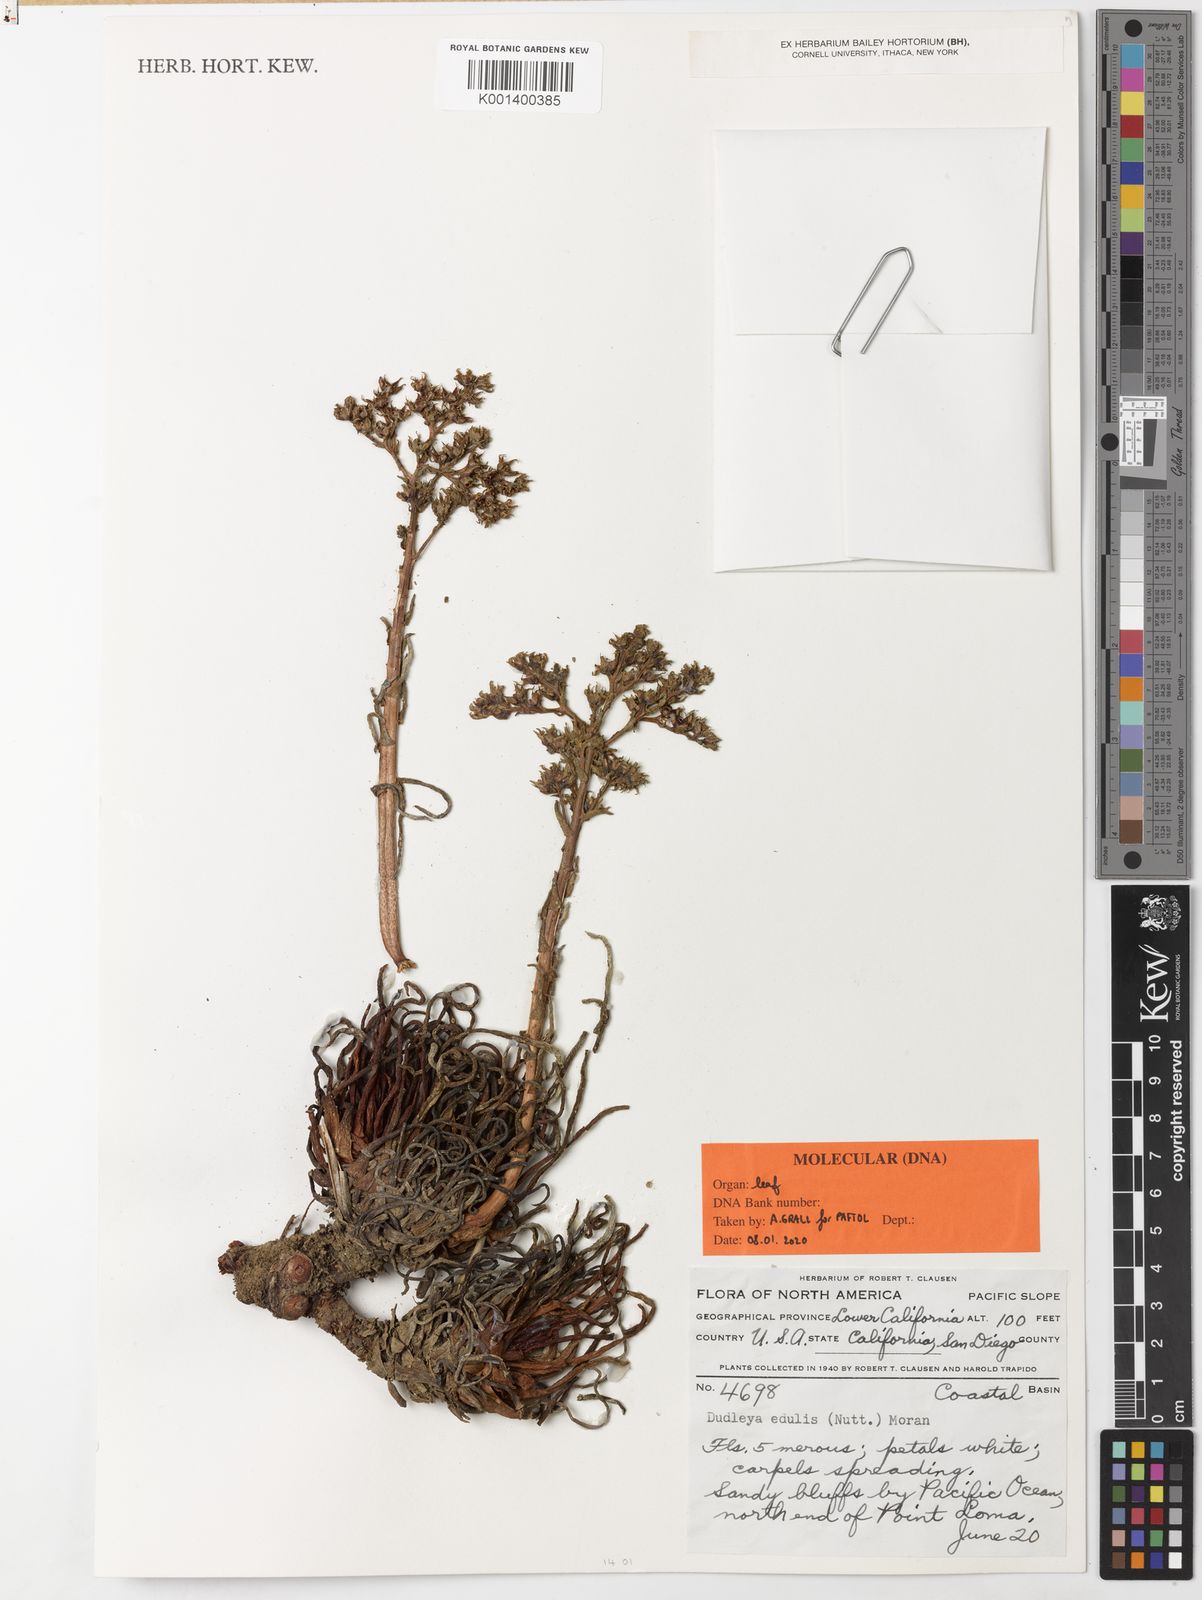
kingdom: Plantae
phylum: Tracheophyta
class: Magnoliopsida
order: Saxifragales
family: Crassulaceae
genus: Dudleya
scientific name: Dudleya edulis
